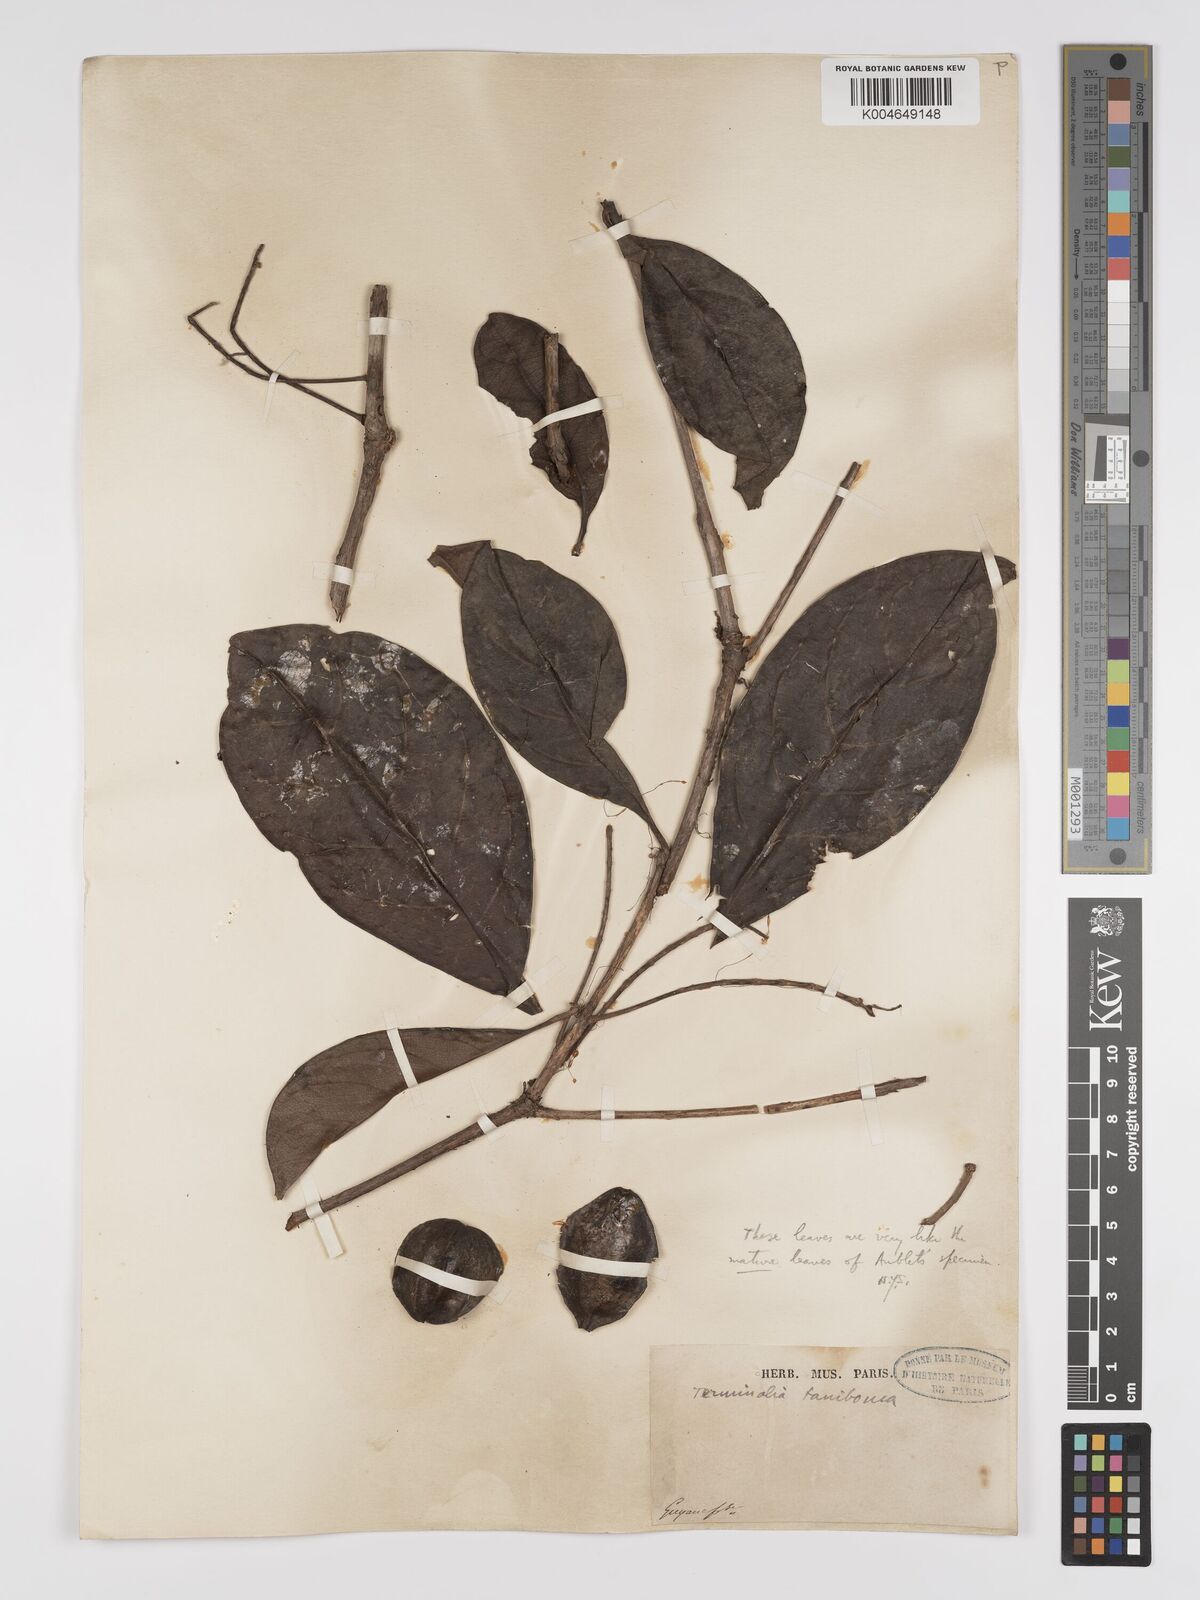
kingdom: Plantae
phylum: Tracheophyta
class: Magnoliopsida
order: Myrtales
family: Combretaceae
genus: Terminalia
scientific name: Terminalia dichotoma
